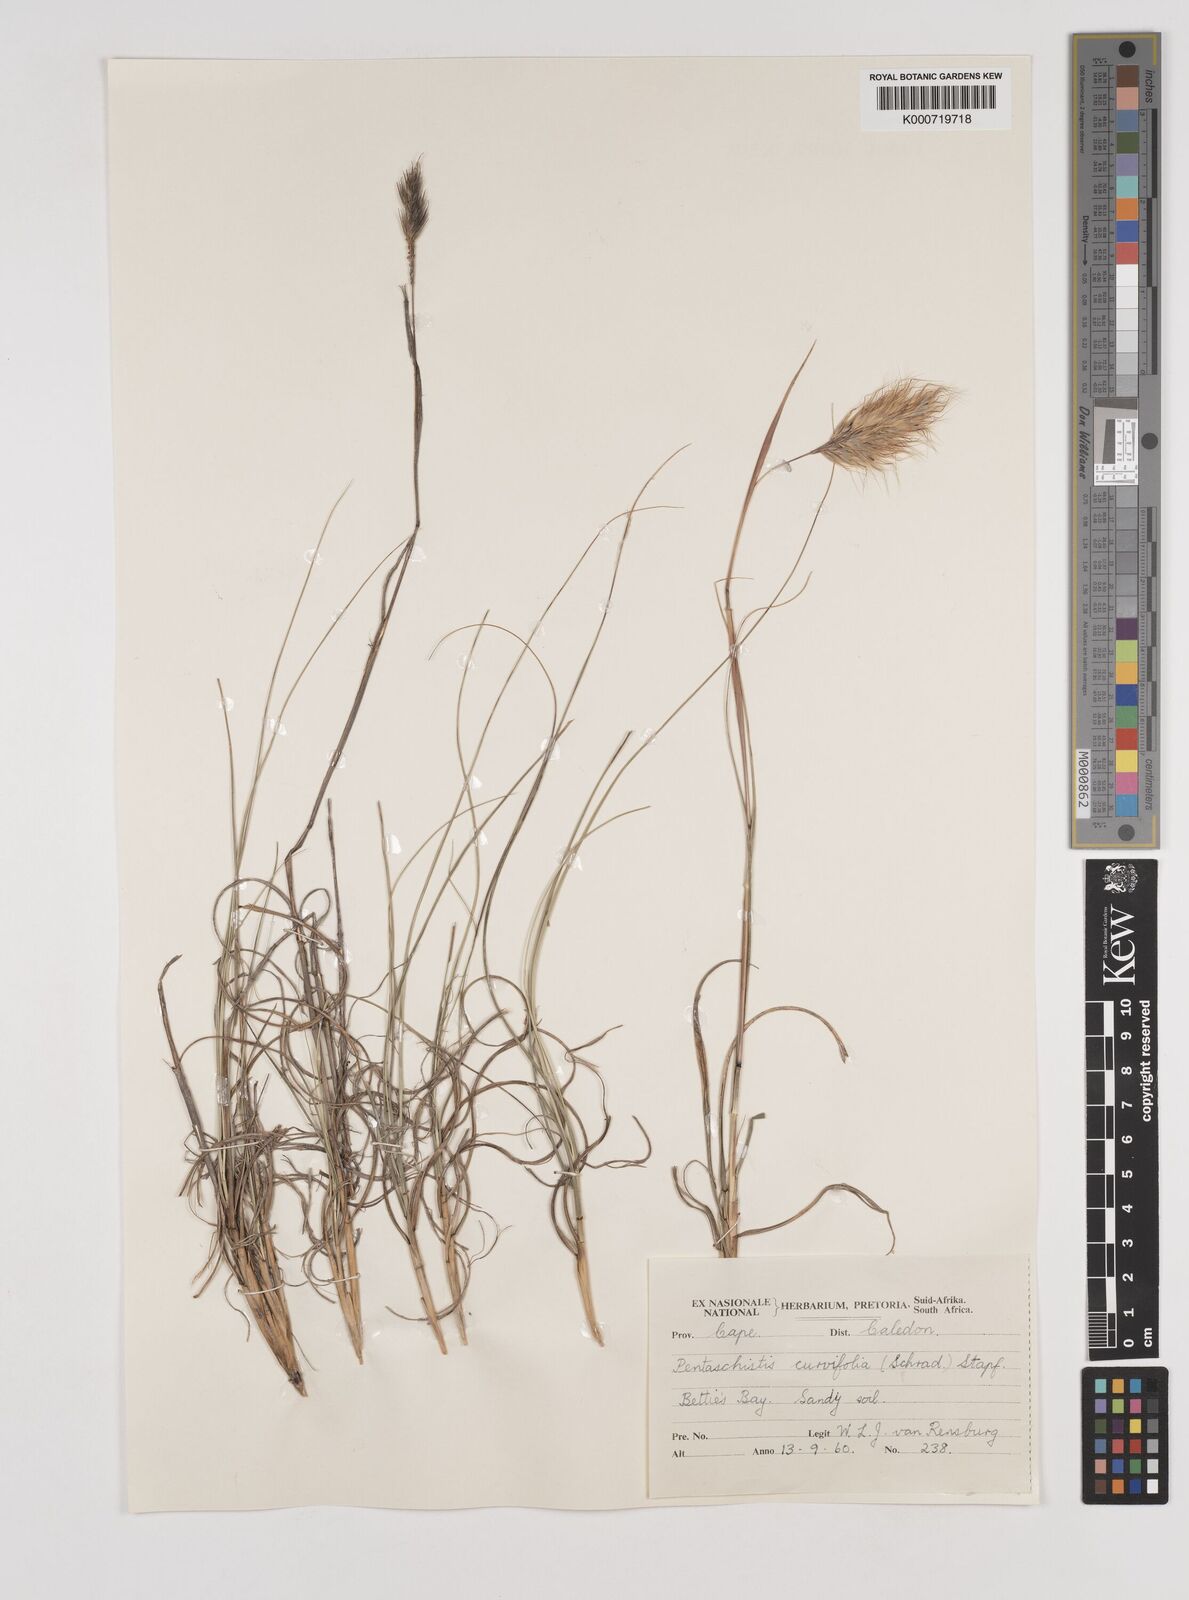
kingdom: Plantae
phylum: Tracheophyta
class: Liliopsida
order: Poales
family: Poaceae
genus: Pentameris
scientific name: Pentameris curvifolia
